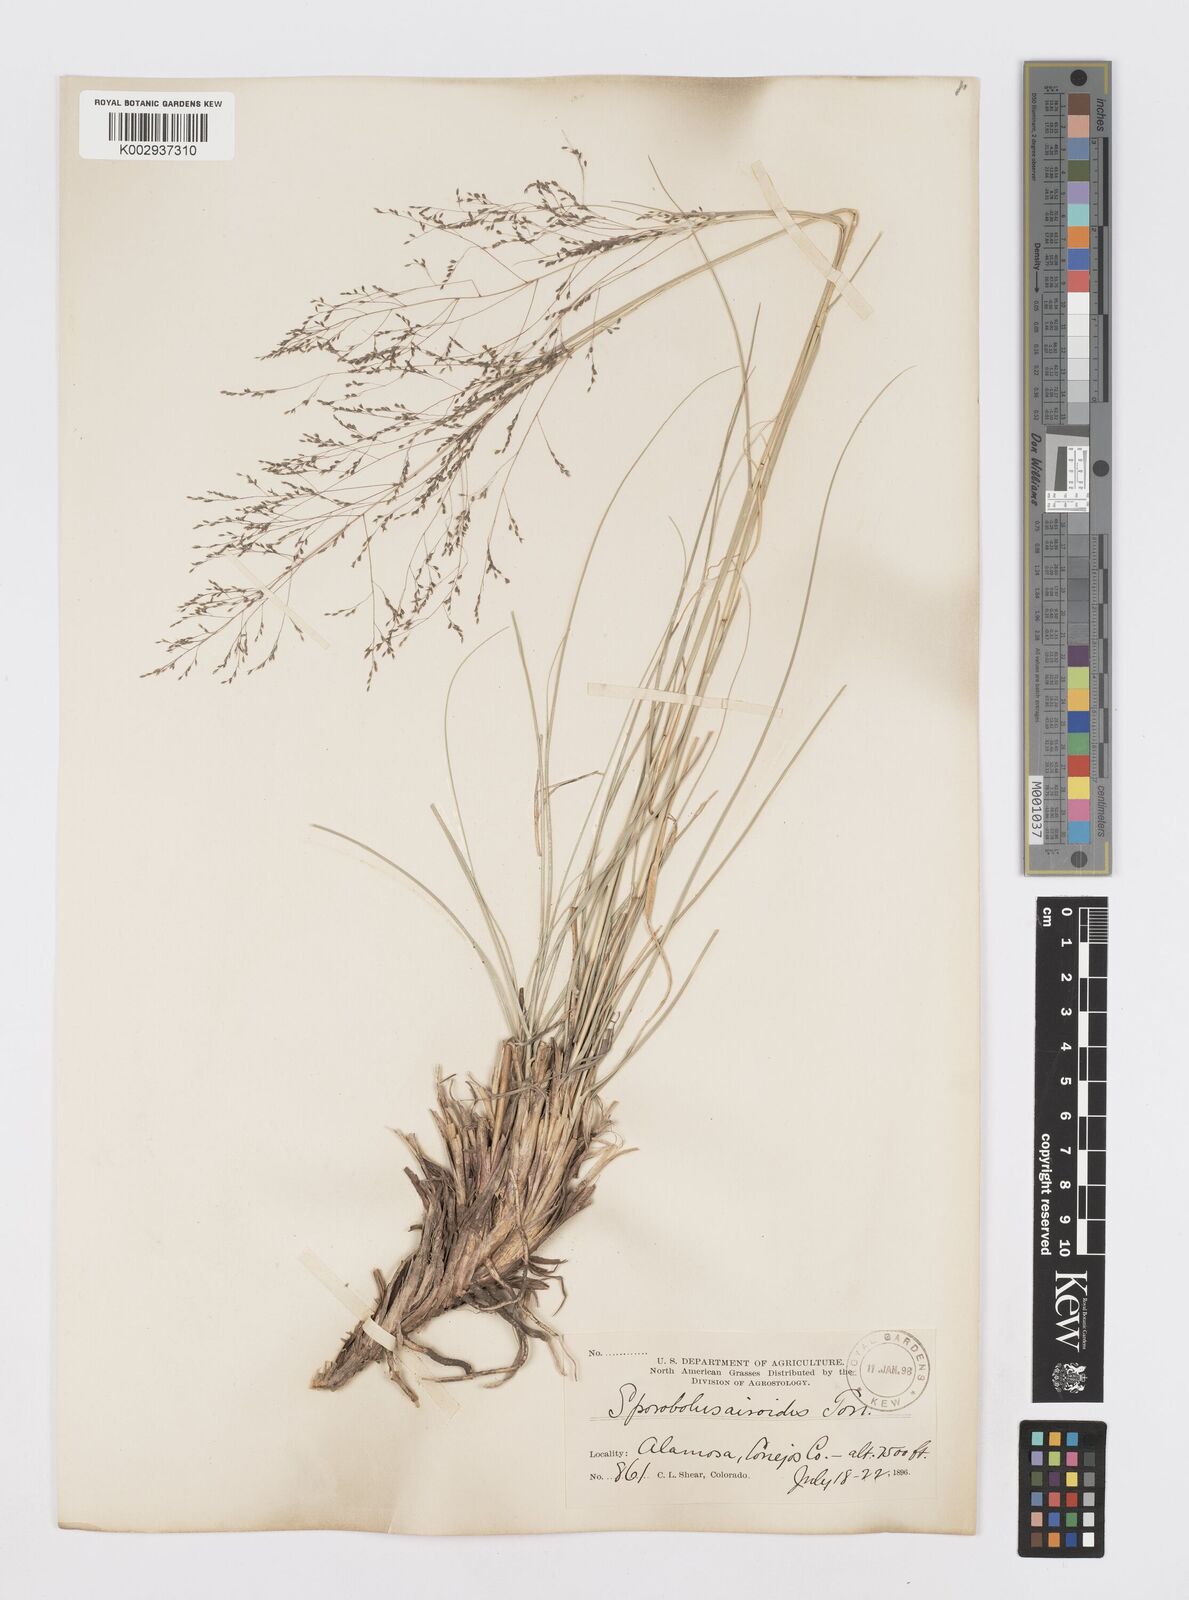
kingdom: Plantae
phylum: Tracheophyta
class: Liliopsida
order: Poales
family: Poaceae
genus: Sporobolus
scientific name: Sporobolus airoides
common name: Alkali sacaton
